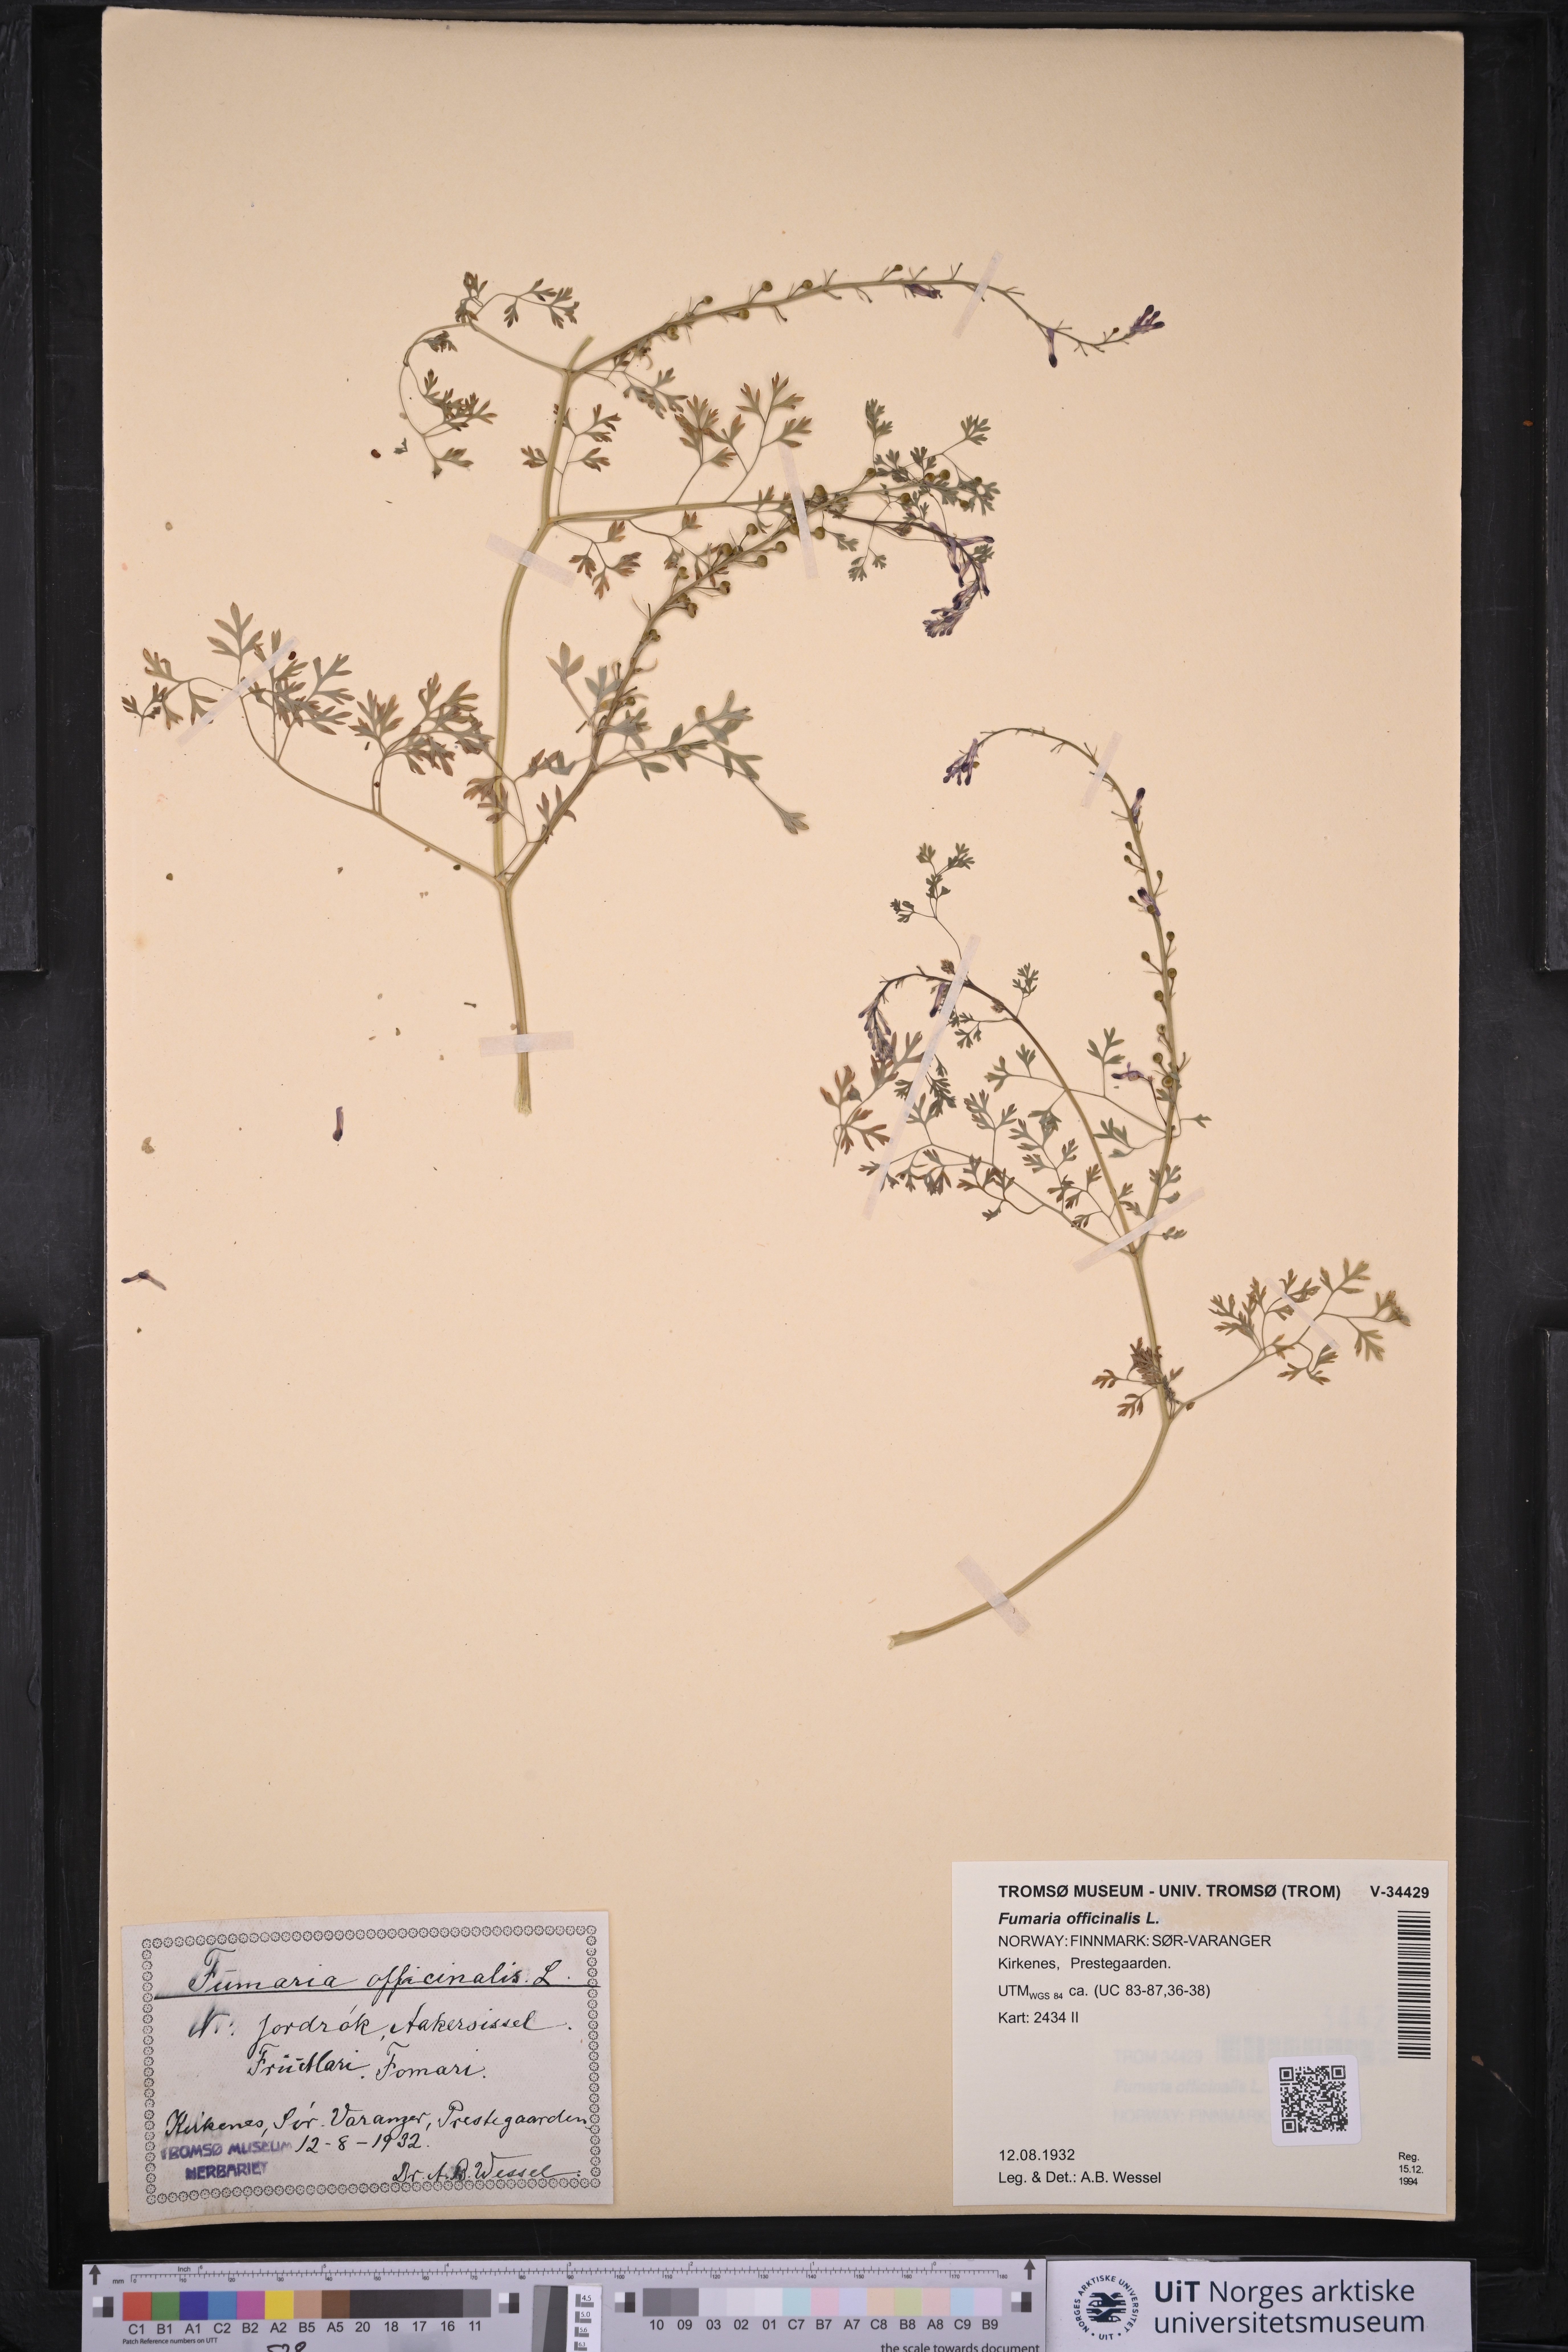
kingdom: Plantae
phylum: Tracheophyta
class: Magnoliopsida
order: Ranunculales
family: Papaveraceae
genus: Fumaria
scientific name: Fumaria officinalis
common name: Common fumitory
